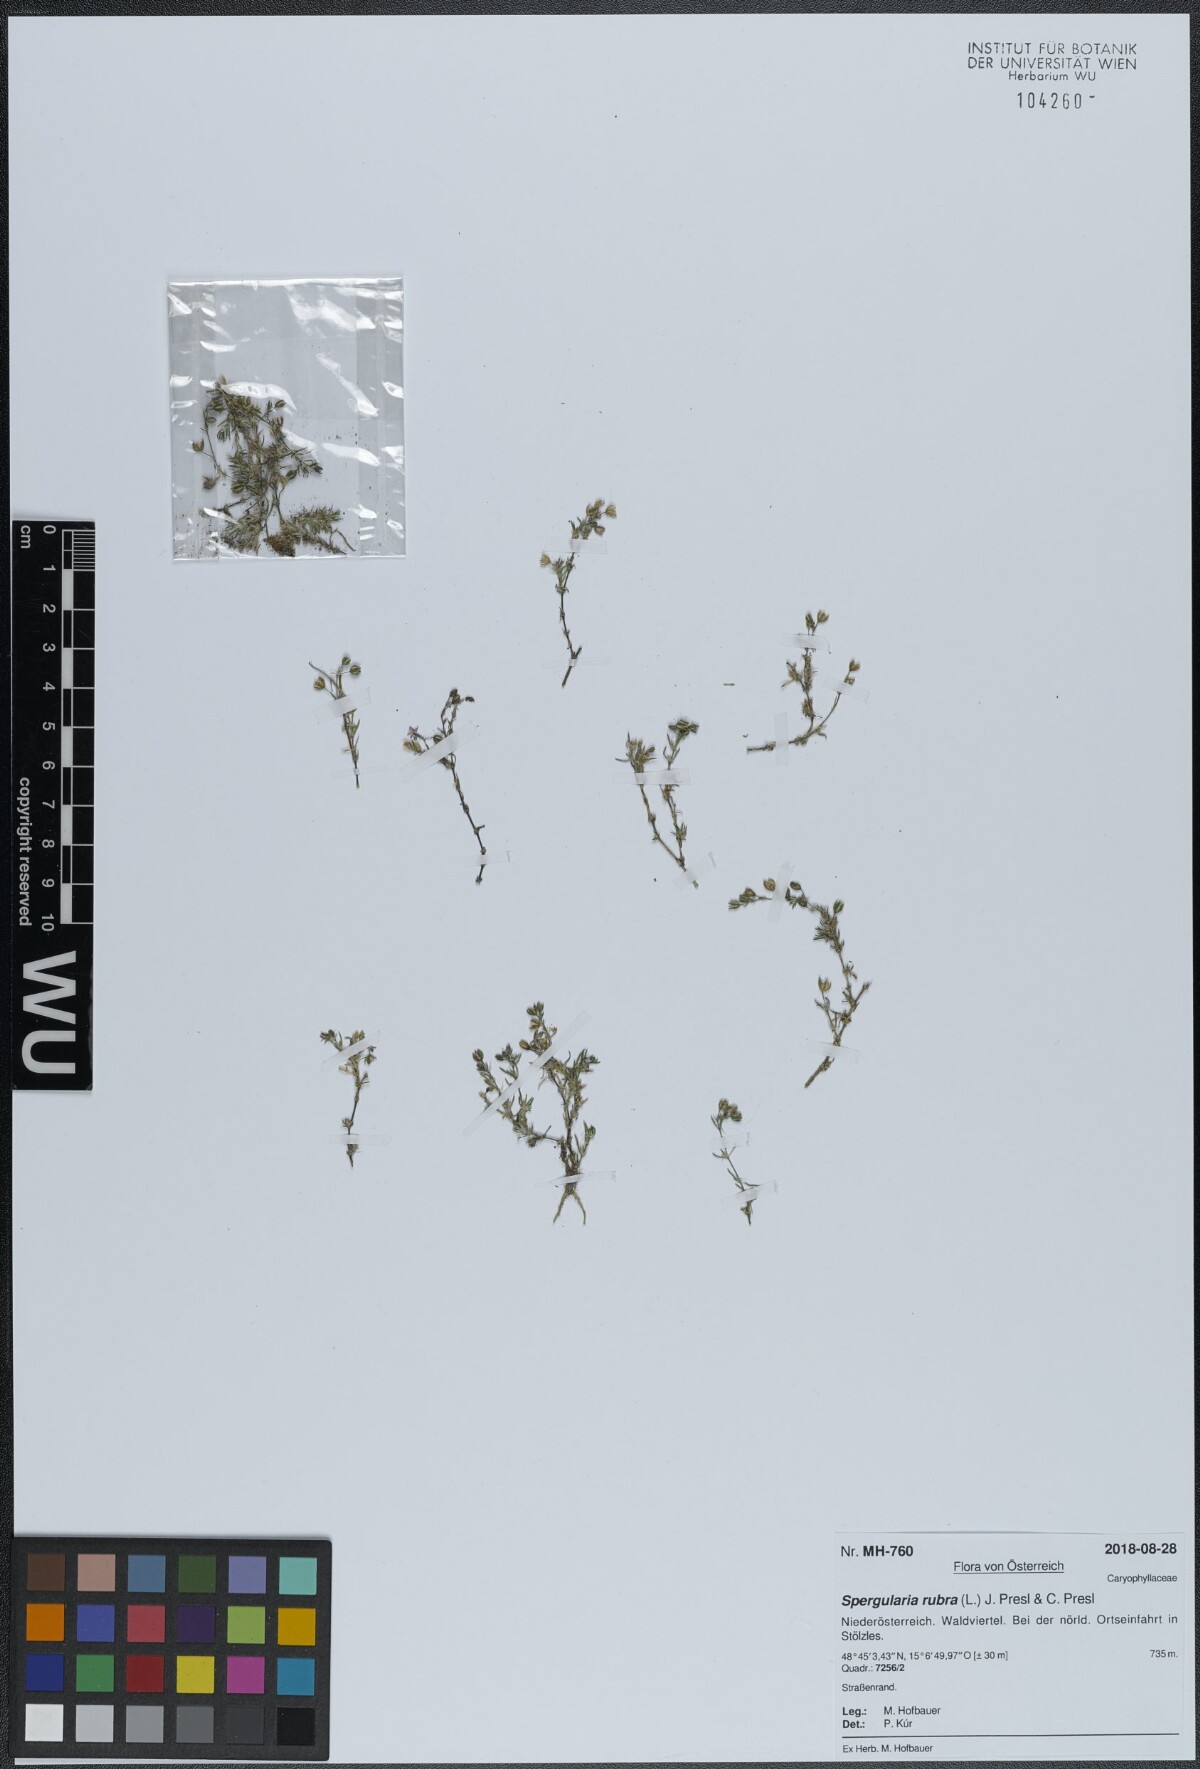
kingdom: Plantae
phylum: Tracheophyta
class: Magnoliopsida
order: Caryophyllales
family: Caryophyllaceae
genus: Spergularia
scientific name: Spergularia rubra
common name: Red sand-spurrey
